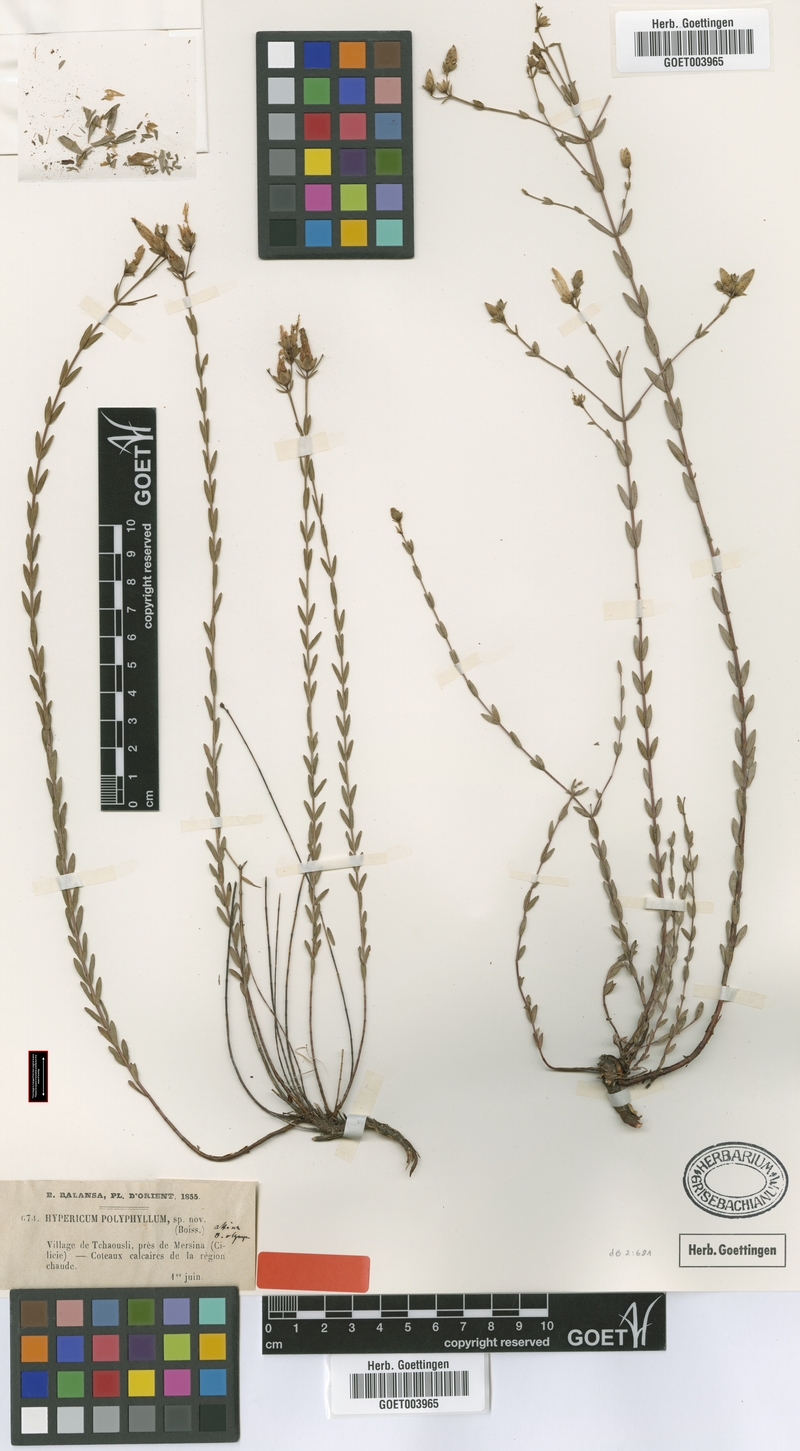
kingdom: Plantae
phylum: Tracheophyta
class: Magnoliopsida
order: Malpighiales
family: Hypericaceae
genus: Hypericum
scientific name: Hypericum polyphyllum
